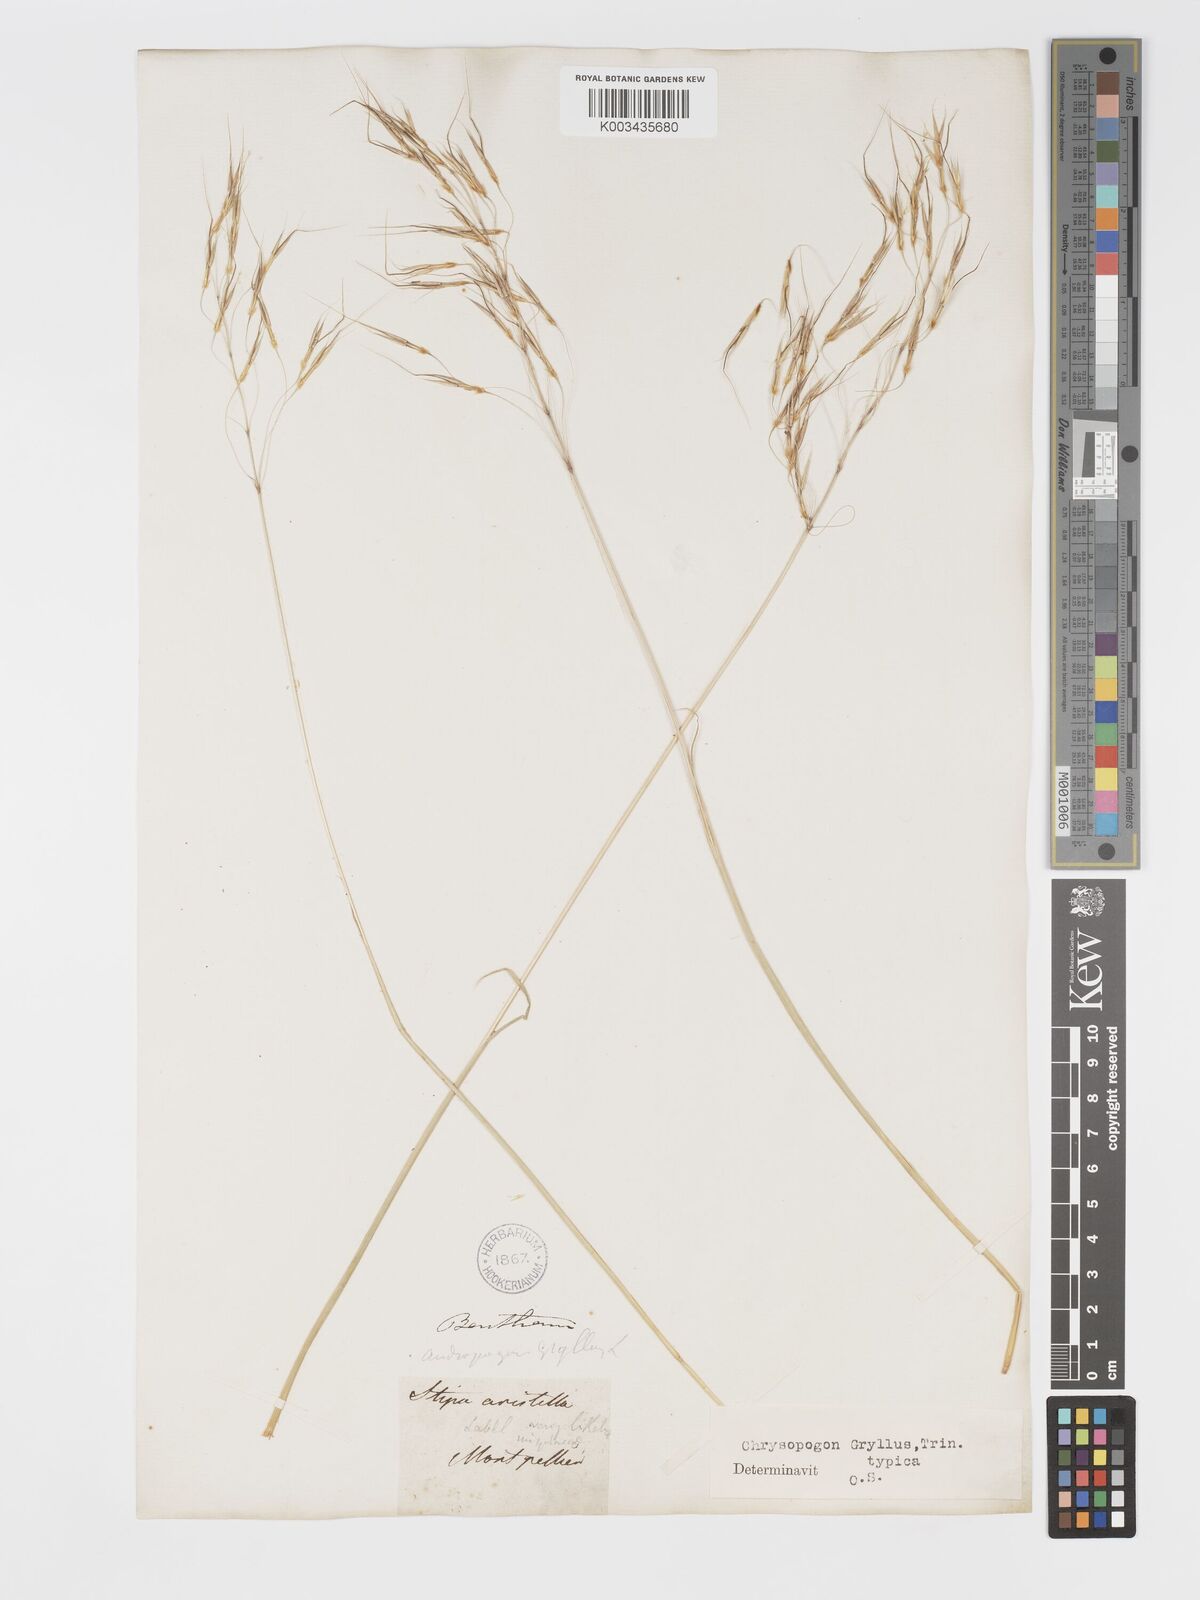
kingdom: Plantae
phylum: Tracheophyta
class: Liliopsida
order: Poales
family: Poaceae
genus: Chrysopogon
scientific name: Chrysopogon gryllus
